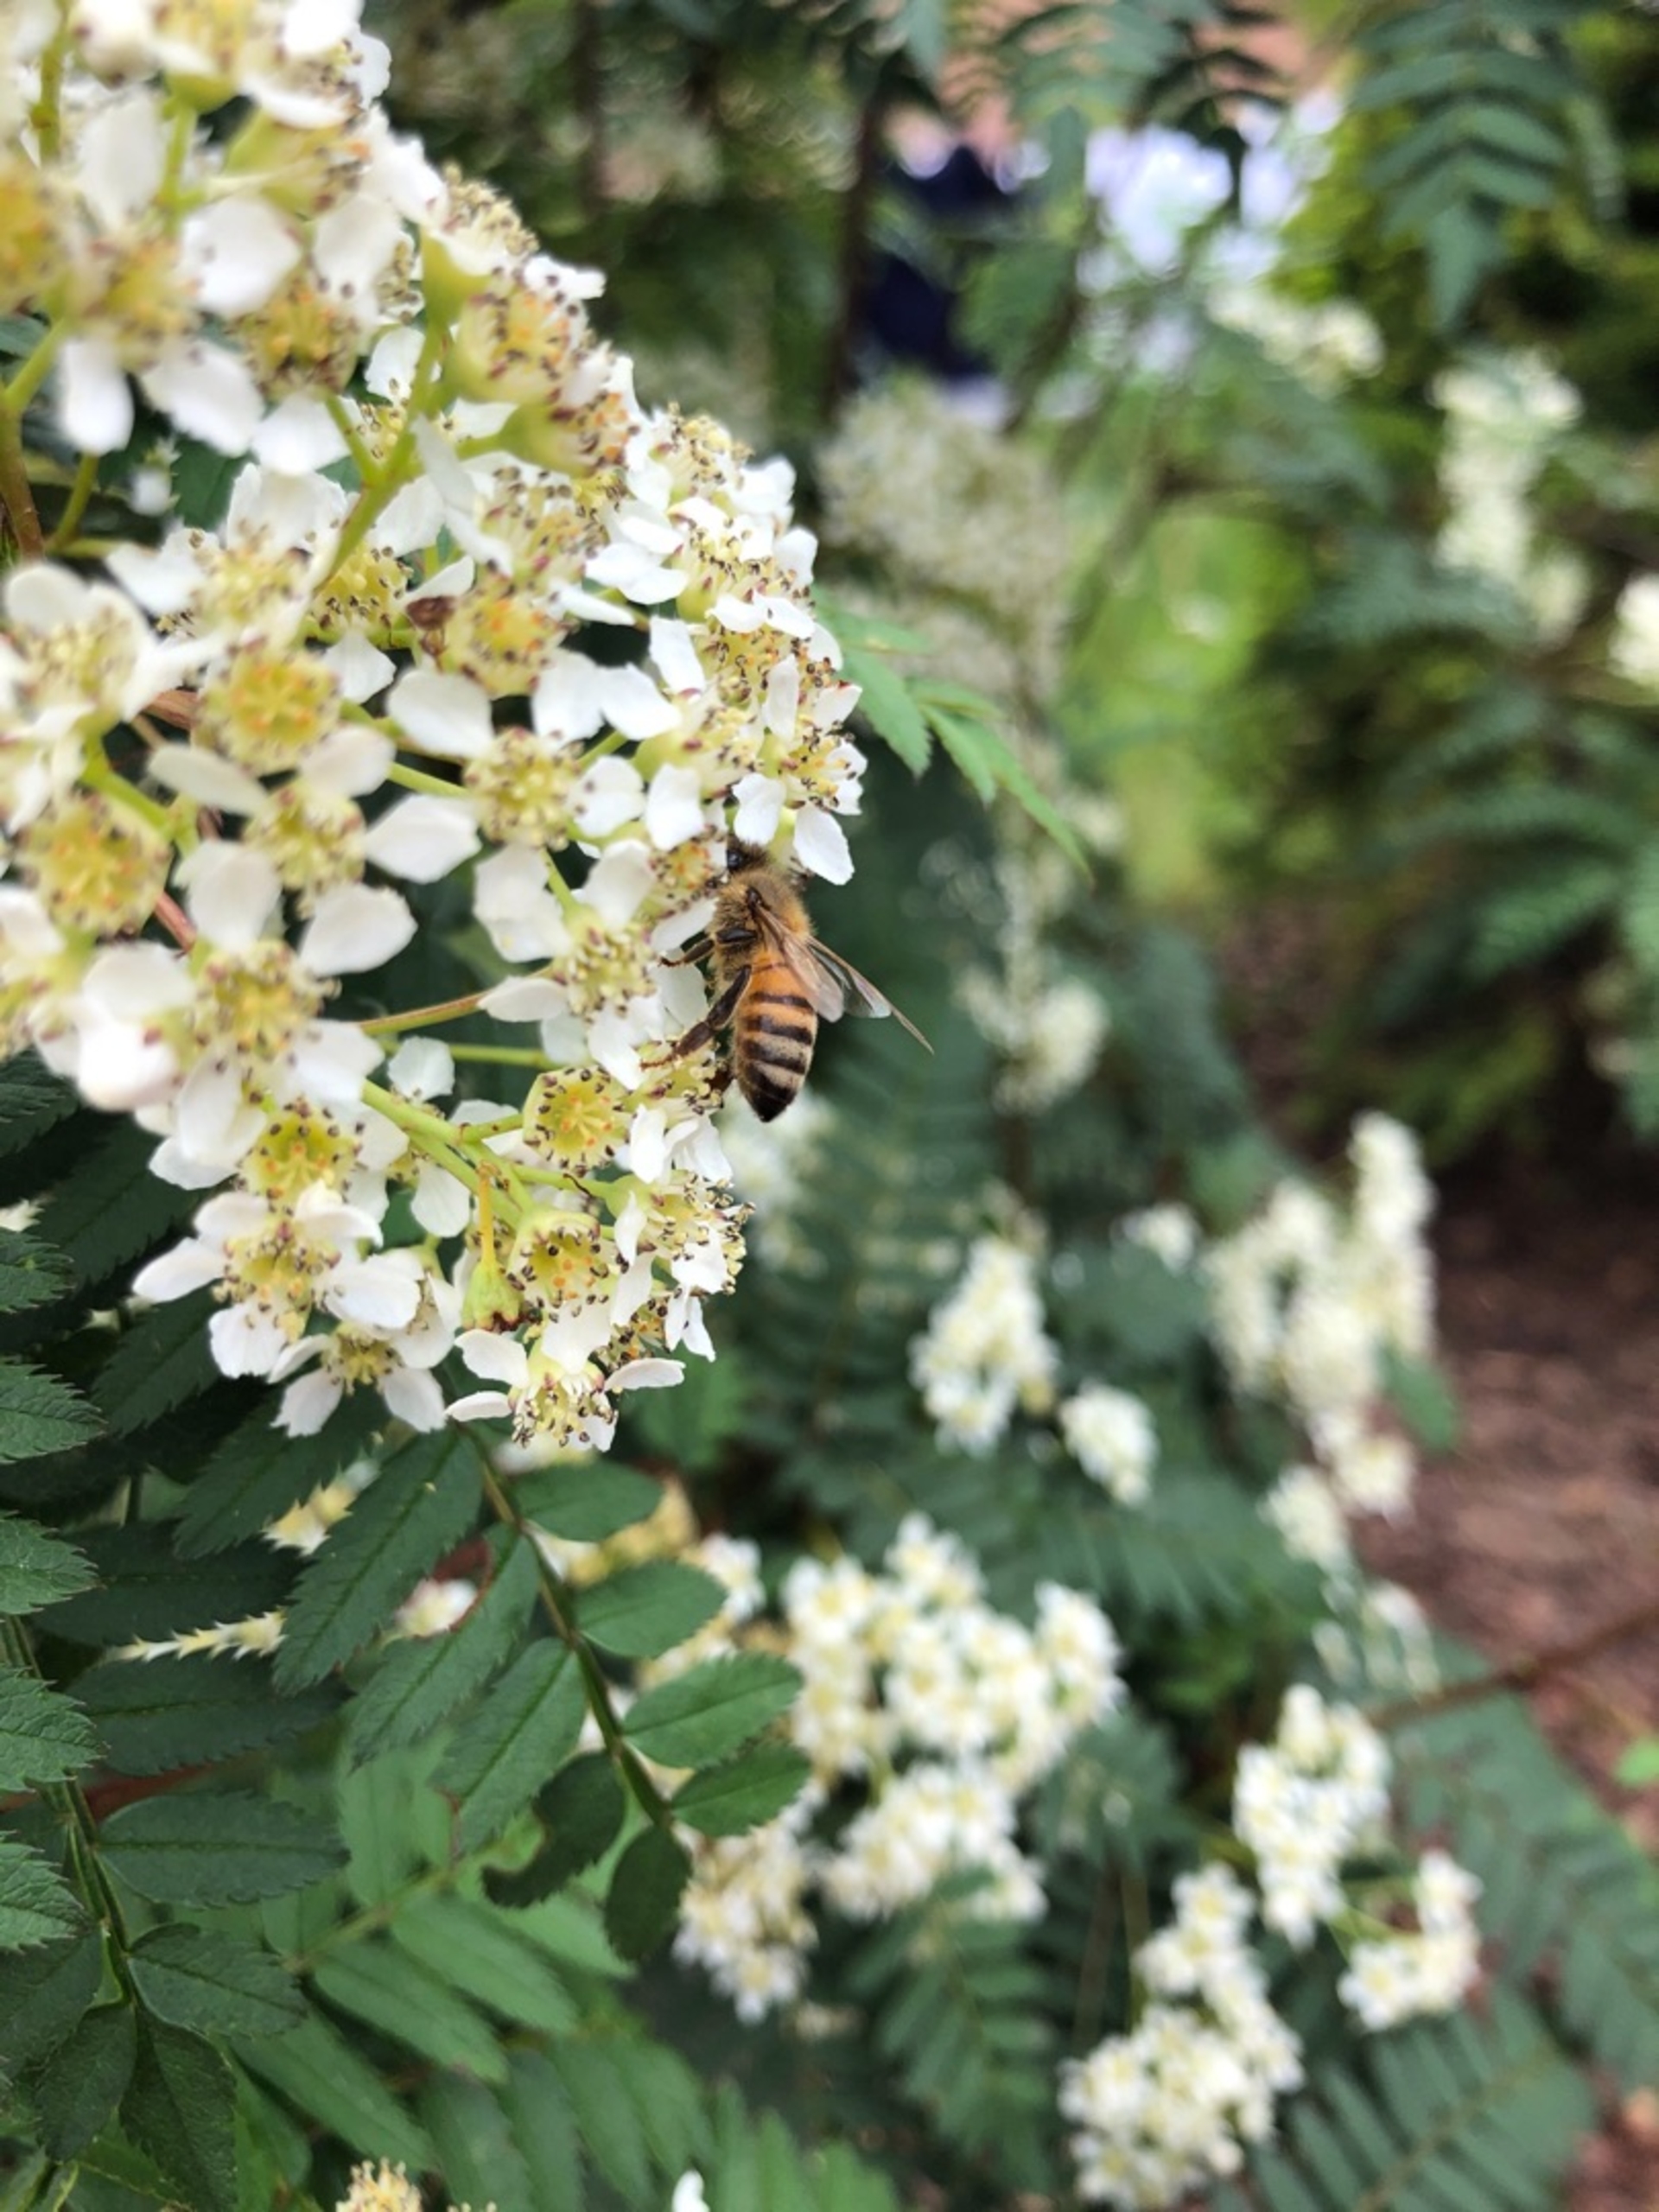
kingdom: Animalia
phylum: Arthropoda
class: Insecta
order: Hymenoptera
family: Apidae
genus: Apis
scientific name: Apis mellifera
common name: Honningbi
